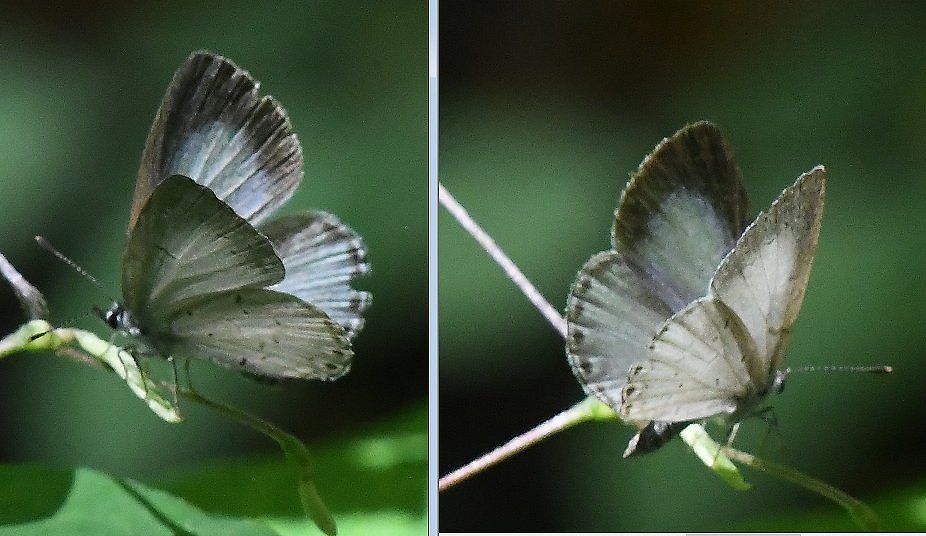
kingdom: Animalia
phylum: Arthropoda
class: Insecta
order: Lepidoptera
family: Lycaenidae
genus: Cyaniris
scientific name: Cyaniris neglecta
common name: Summer Azure
